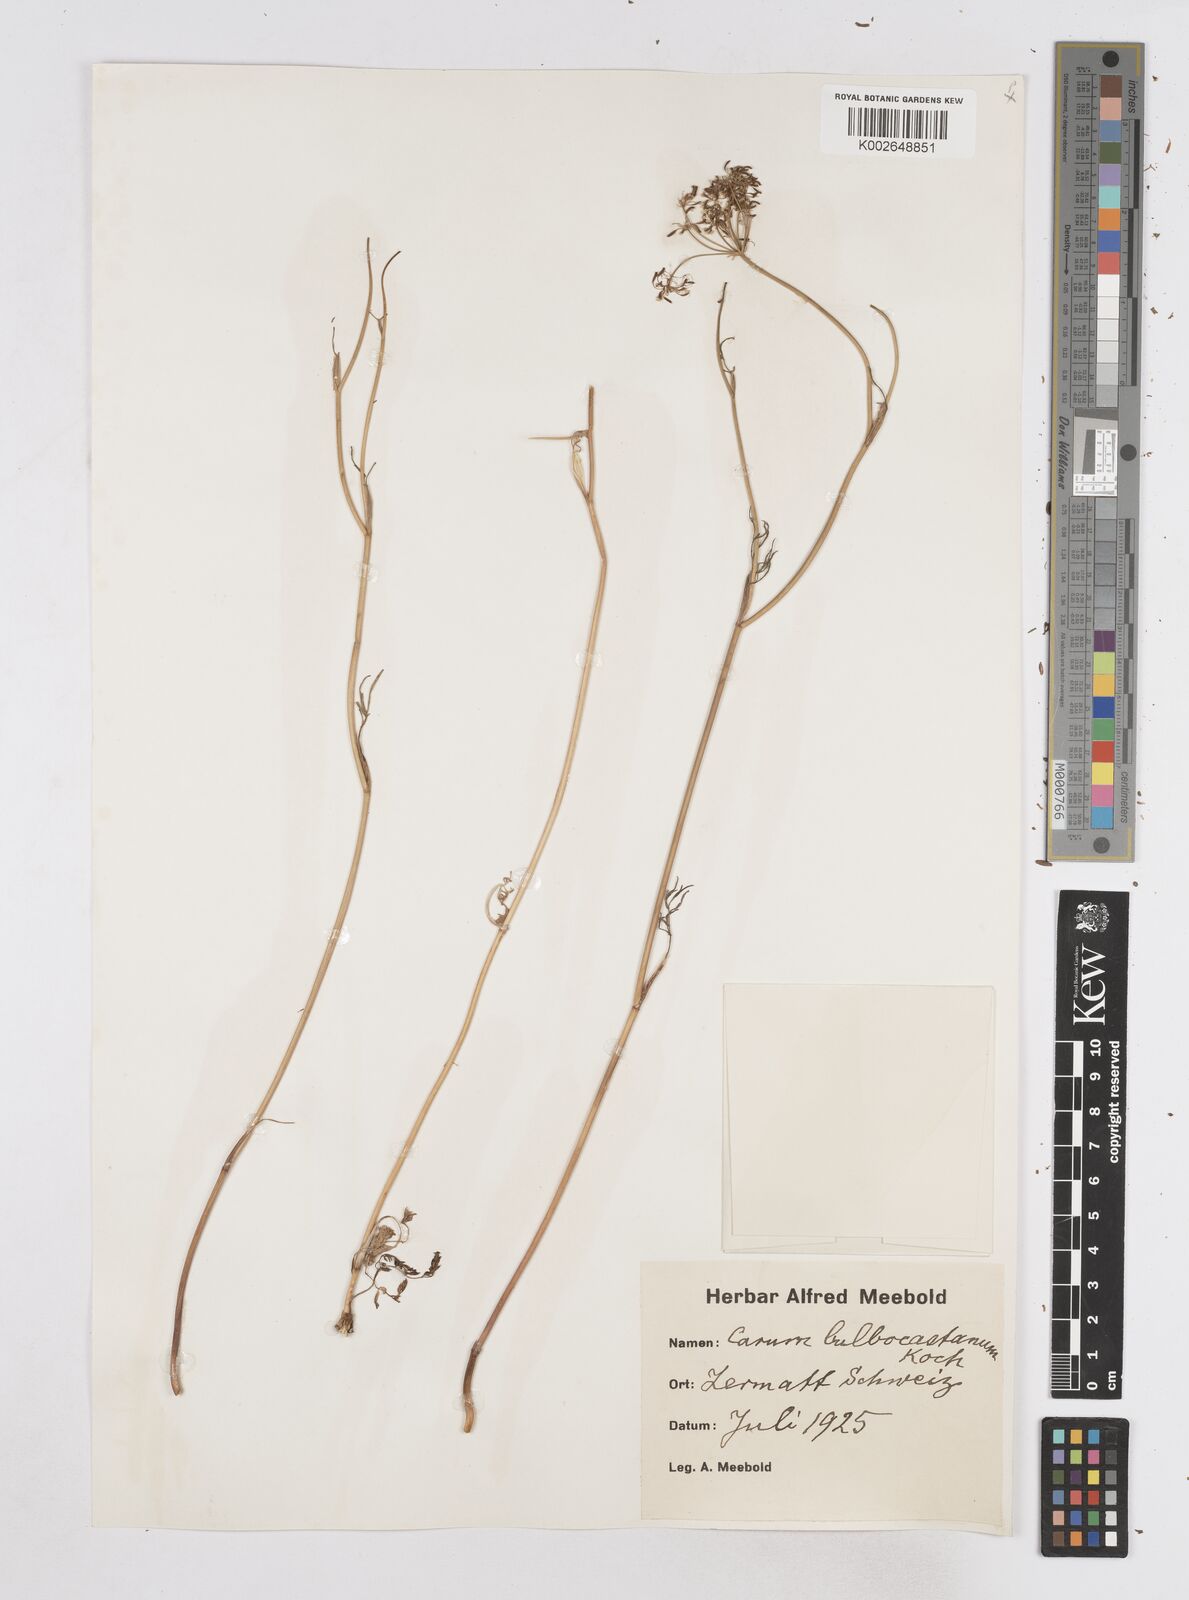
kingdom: Plantae
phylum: Tracheophyta
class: Magnoliopsida
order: Apiales
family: Apiaceae
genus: Bunium
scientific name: Bunium bulbocastanum
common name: Great pignut
